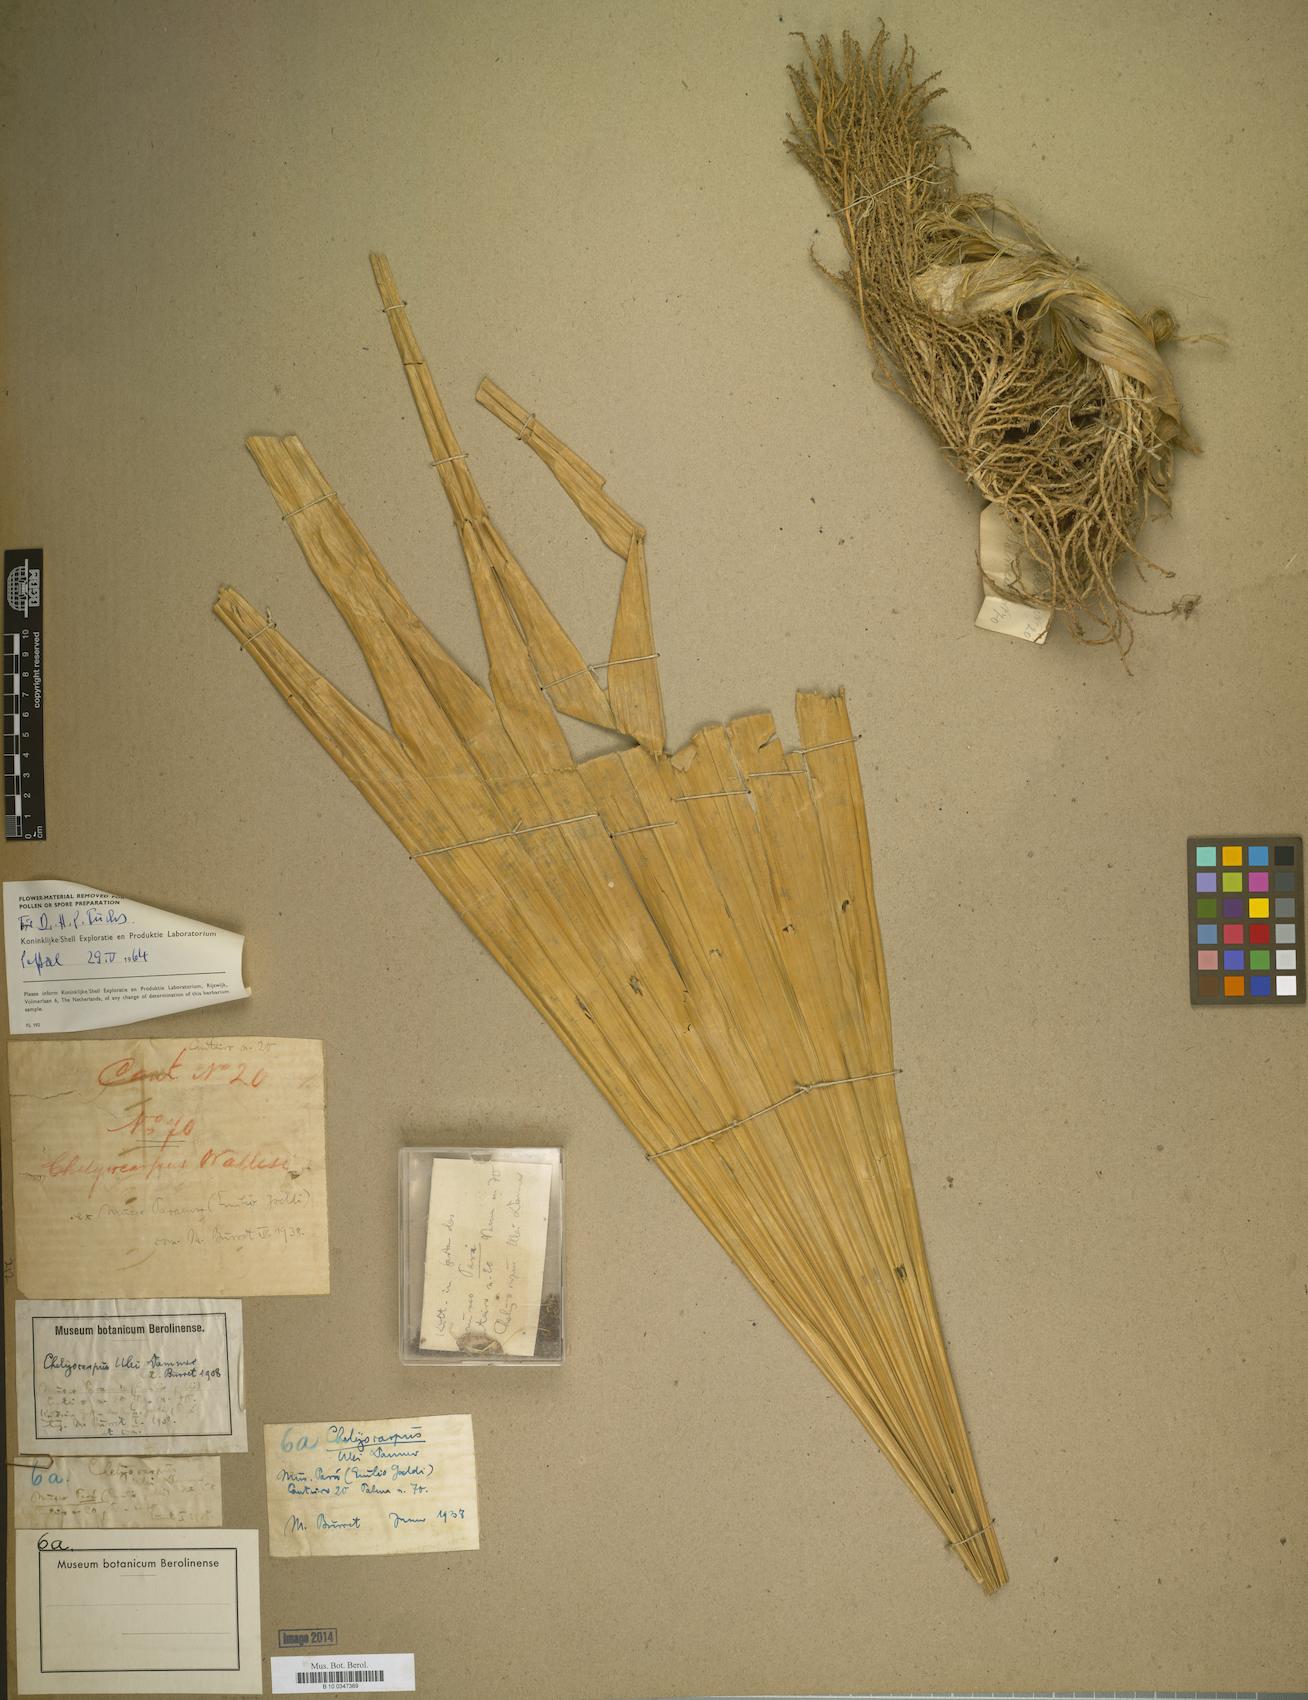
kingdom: Plantae
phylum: Tracheophyta
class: Liliopsida
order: Arecales
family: Arecaceae
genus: Chelyocarpus
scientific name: Chelyocarpus ulei
